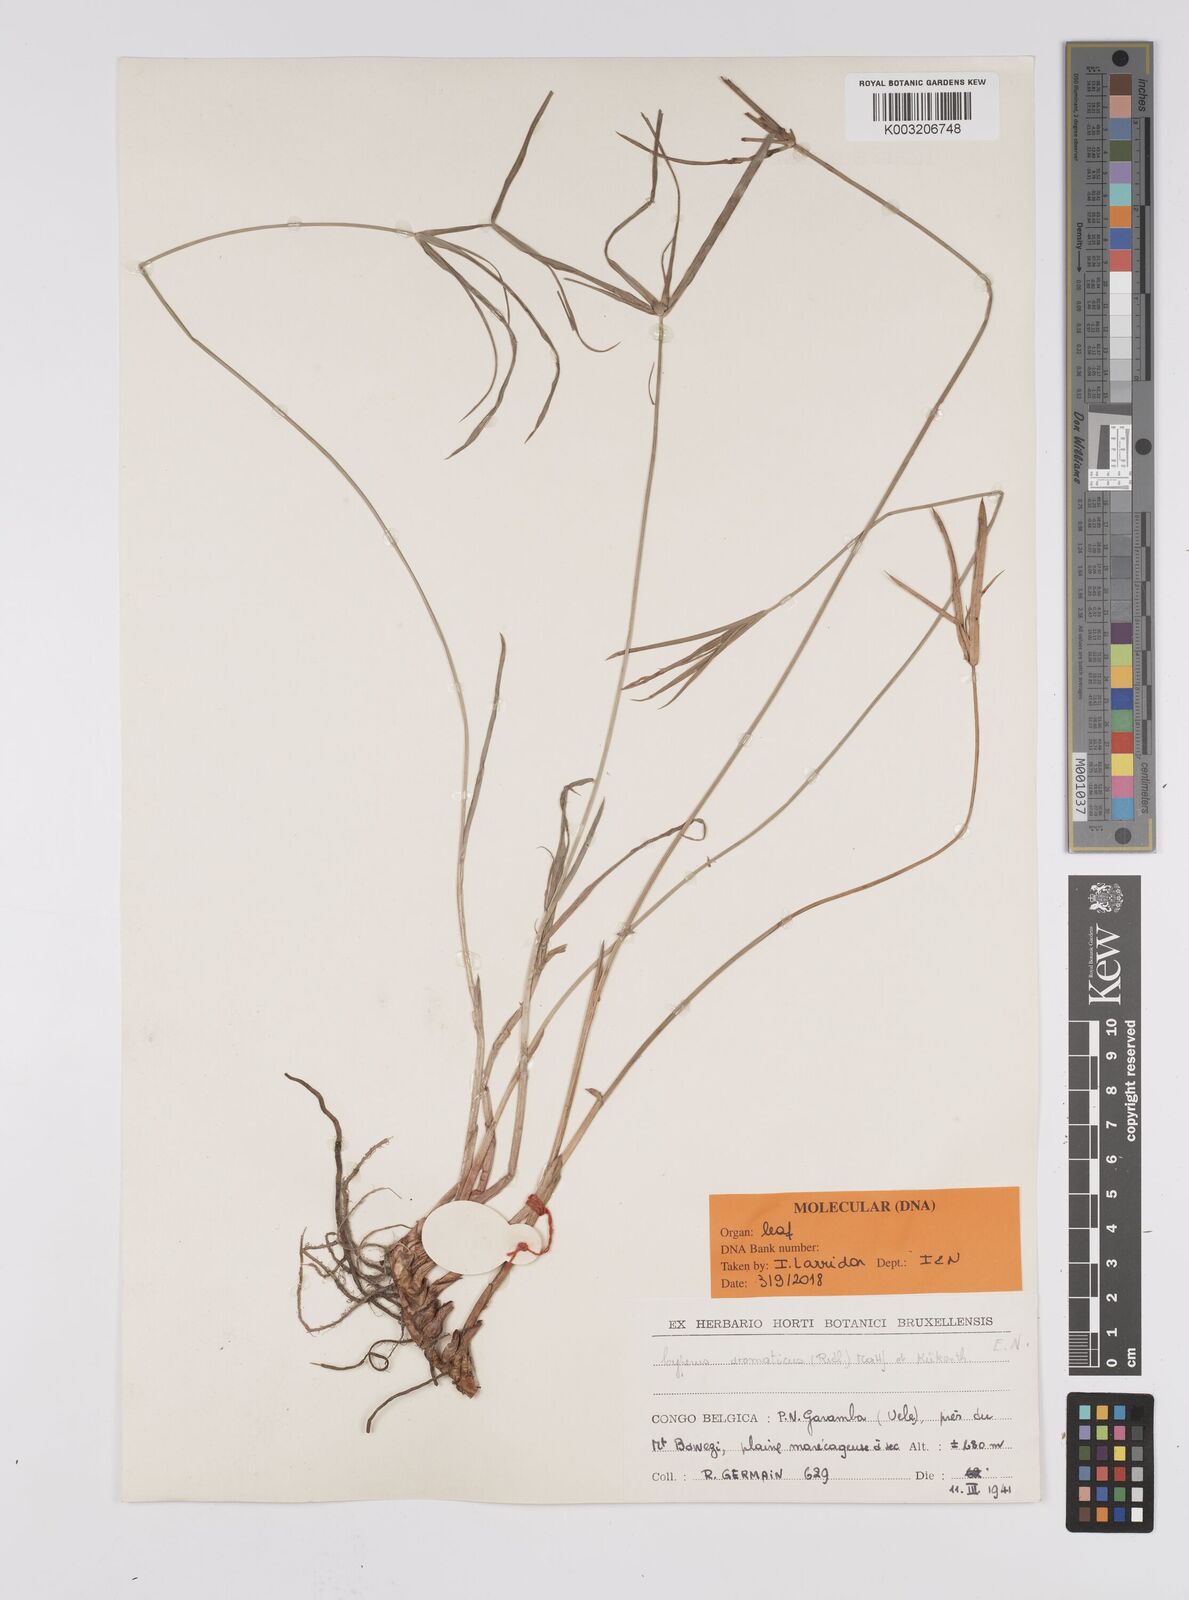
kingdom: Plantae
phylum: Tracheophyta
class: Liliopsida
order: Poales
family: Cyperaceae
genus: Cyperus
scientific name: Cyperus
